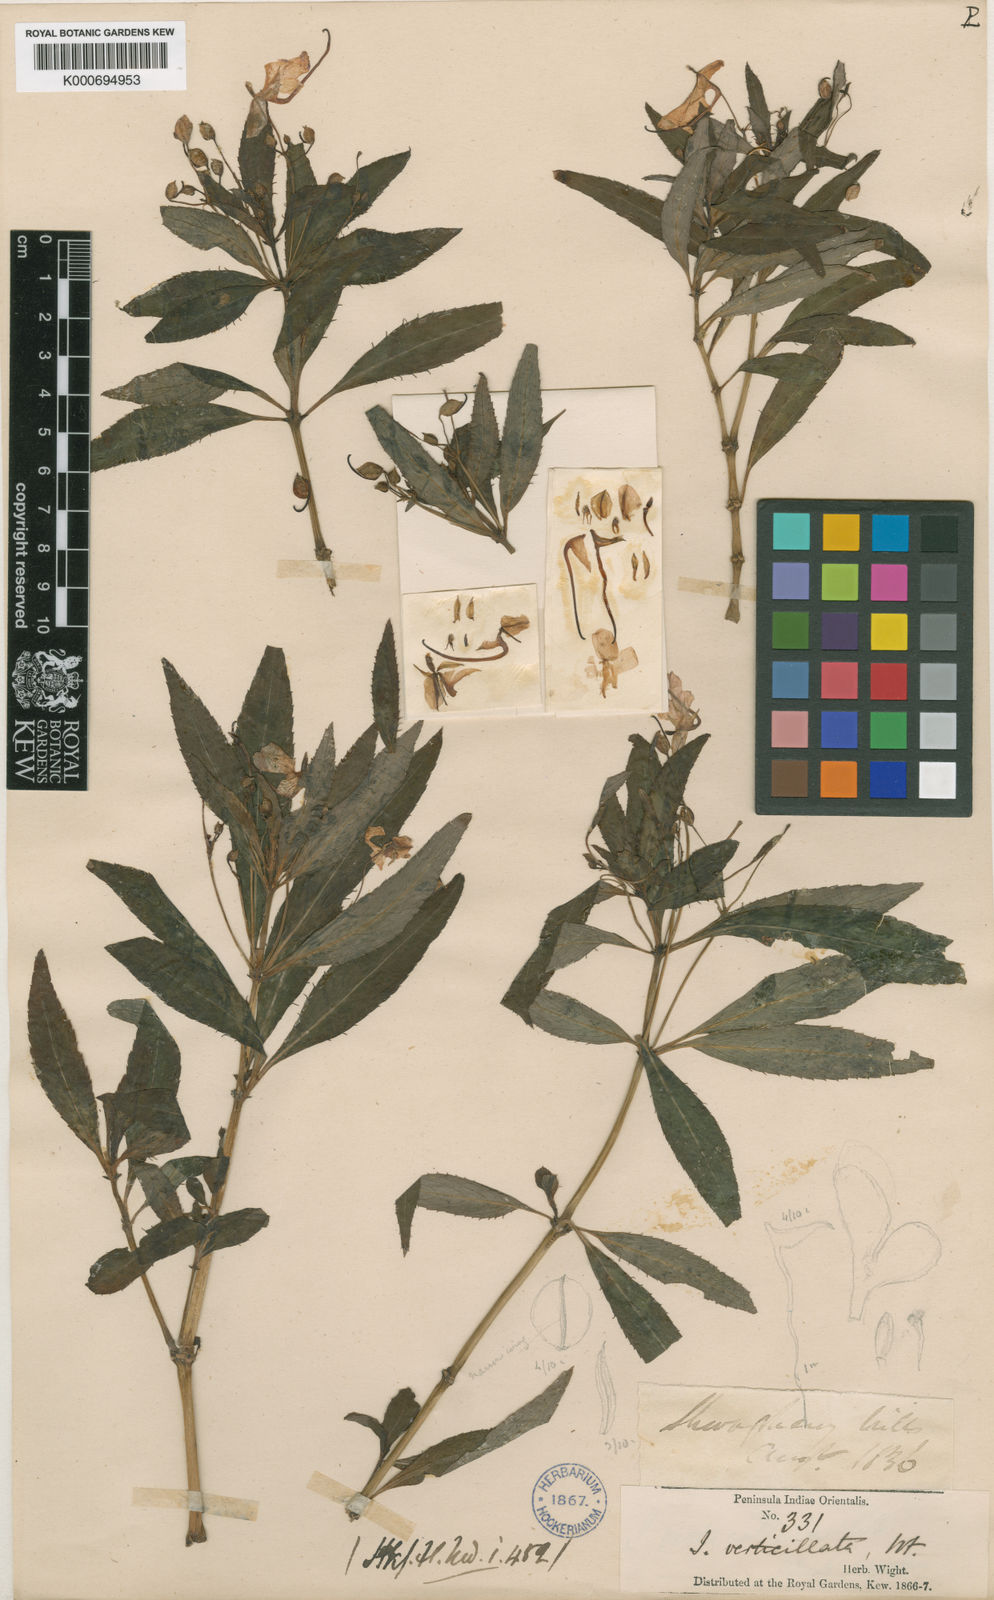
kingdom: Plantae
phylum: Tracheophyta
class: Magnoliopsida
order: Ericales
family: Balsaminaceae
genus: Impatiens
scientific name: Impatiens verticillata
